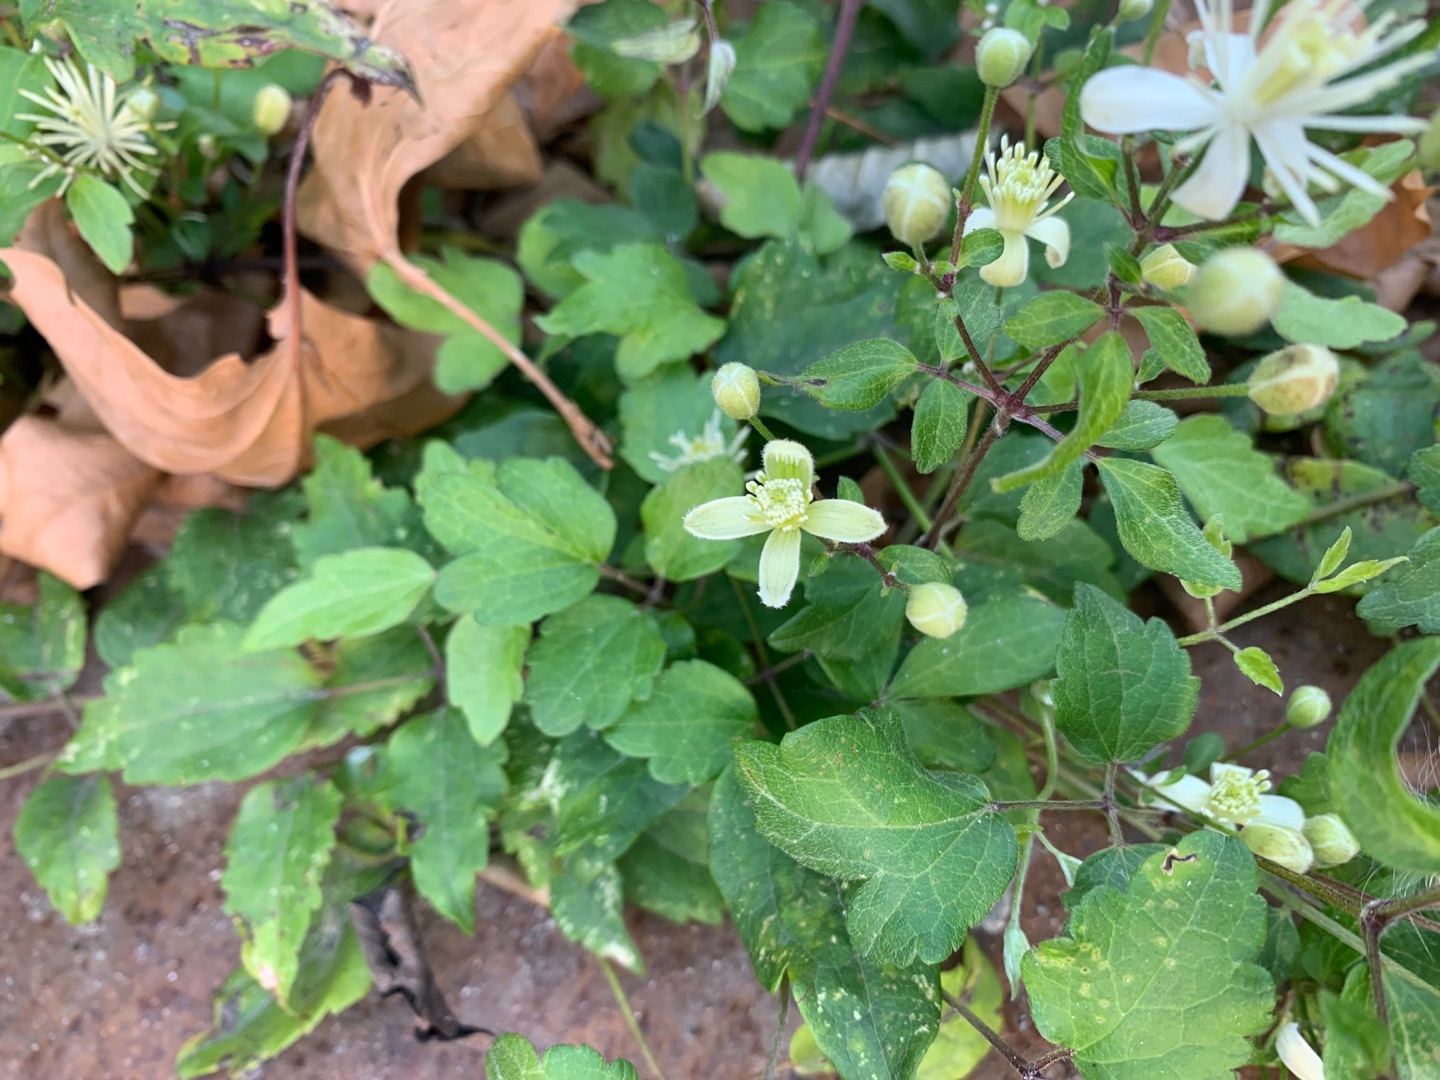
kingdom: Plantae
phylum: Tracheophyta
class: Magnoliopsida
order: Ranunculales
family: Ranunculaceae
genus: Clematis
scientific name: Clematis vitalba
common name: Skovranke
